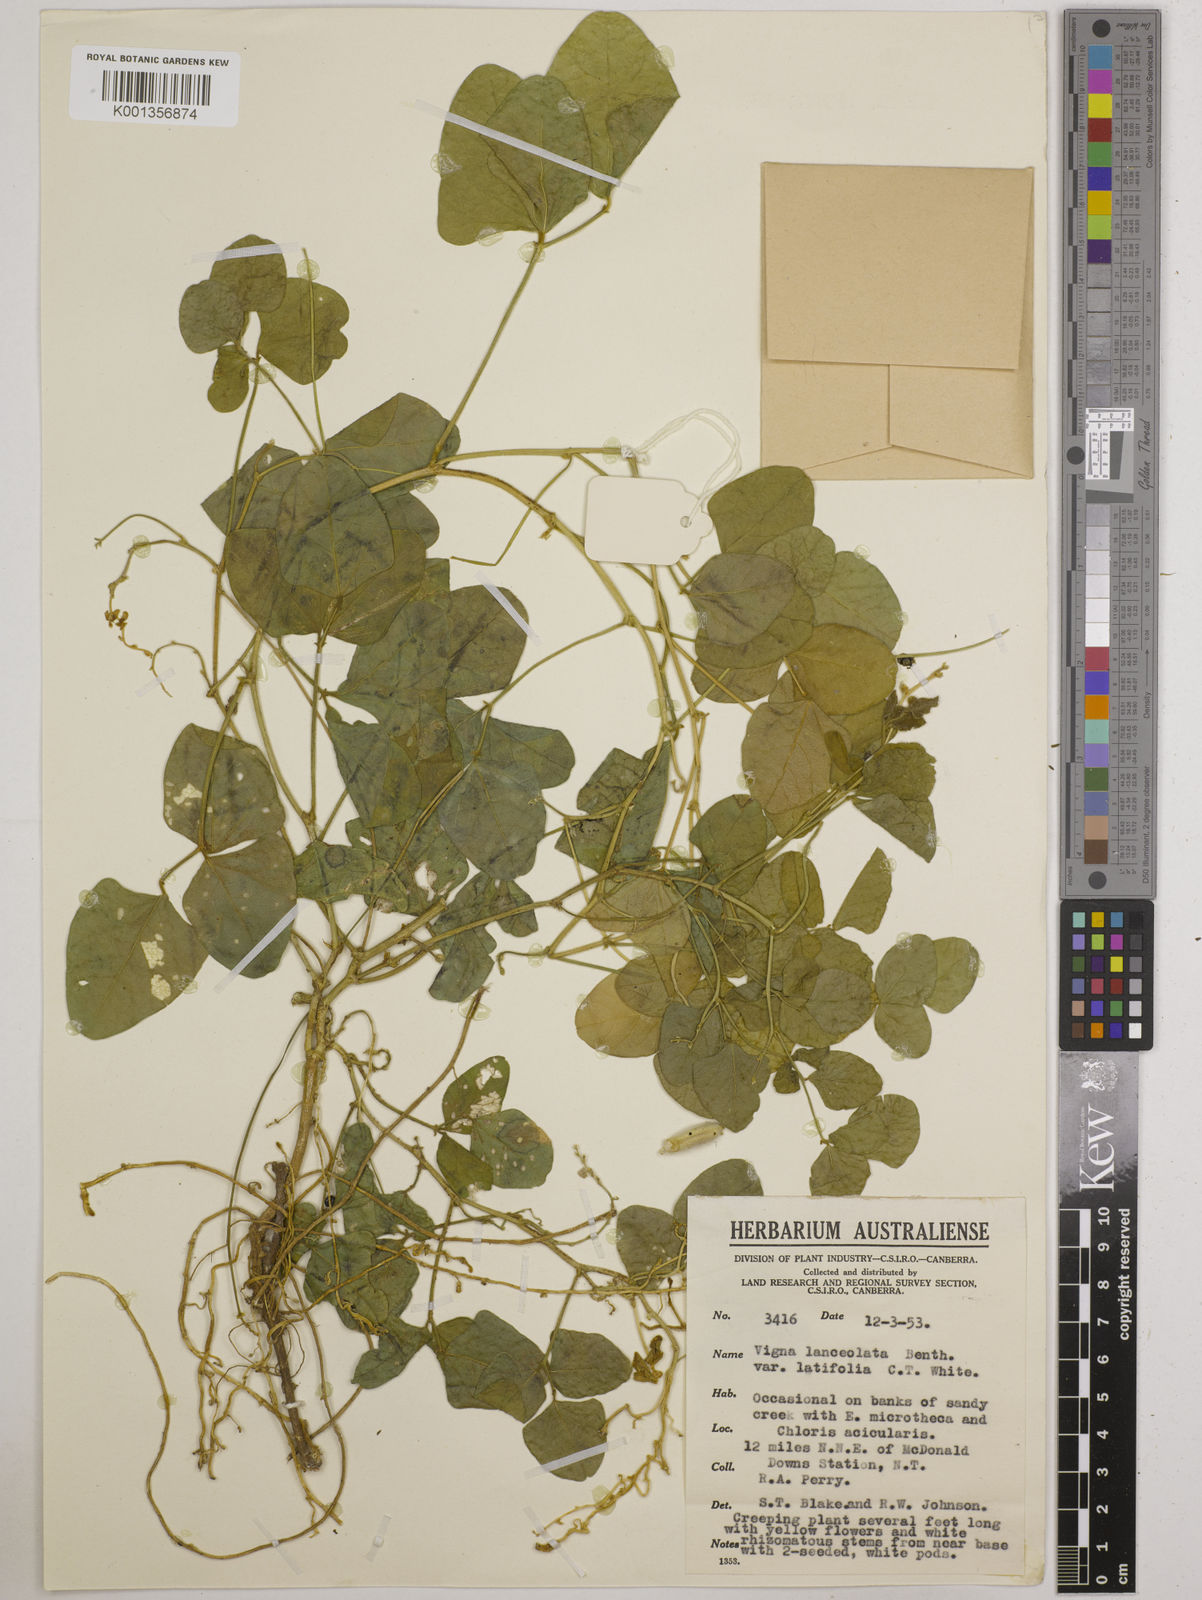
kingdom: Plantae
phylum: Tracheophyta
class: Magnoliopsida
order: Fabales
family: Fabaceae
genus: Vigna
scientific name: Vigna lanceolata
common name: Maloga-bean
